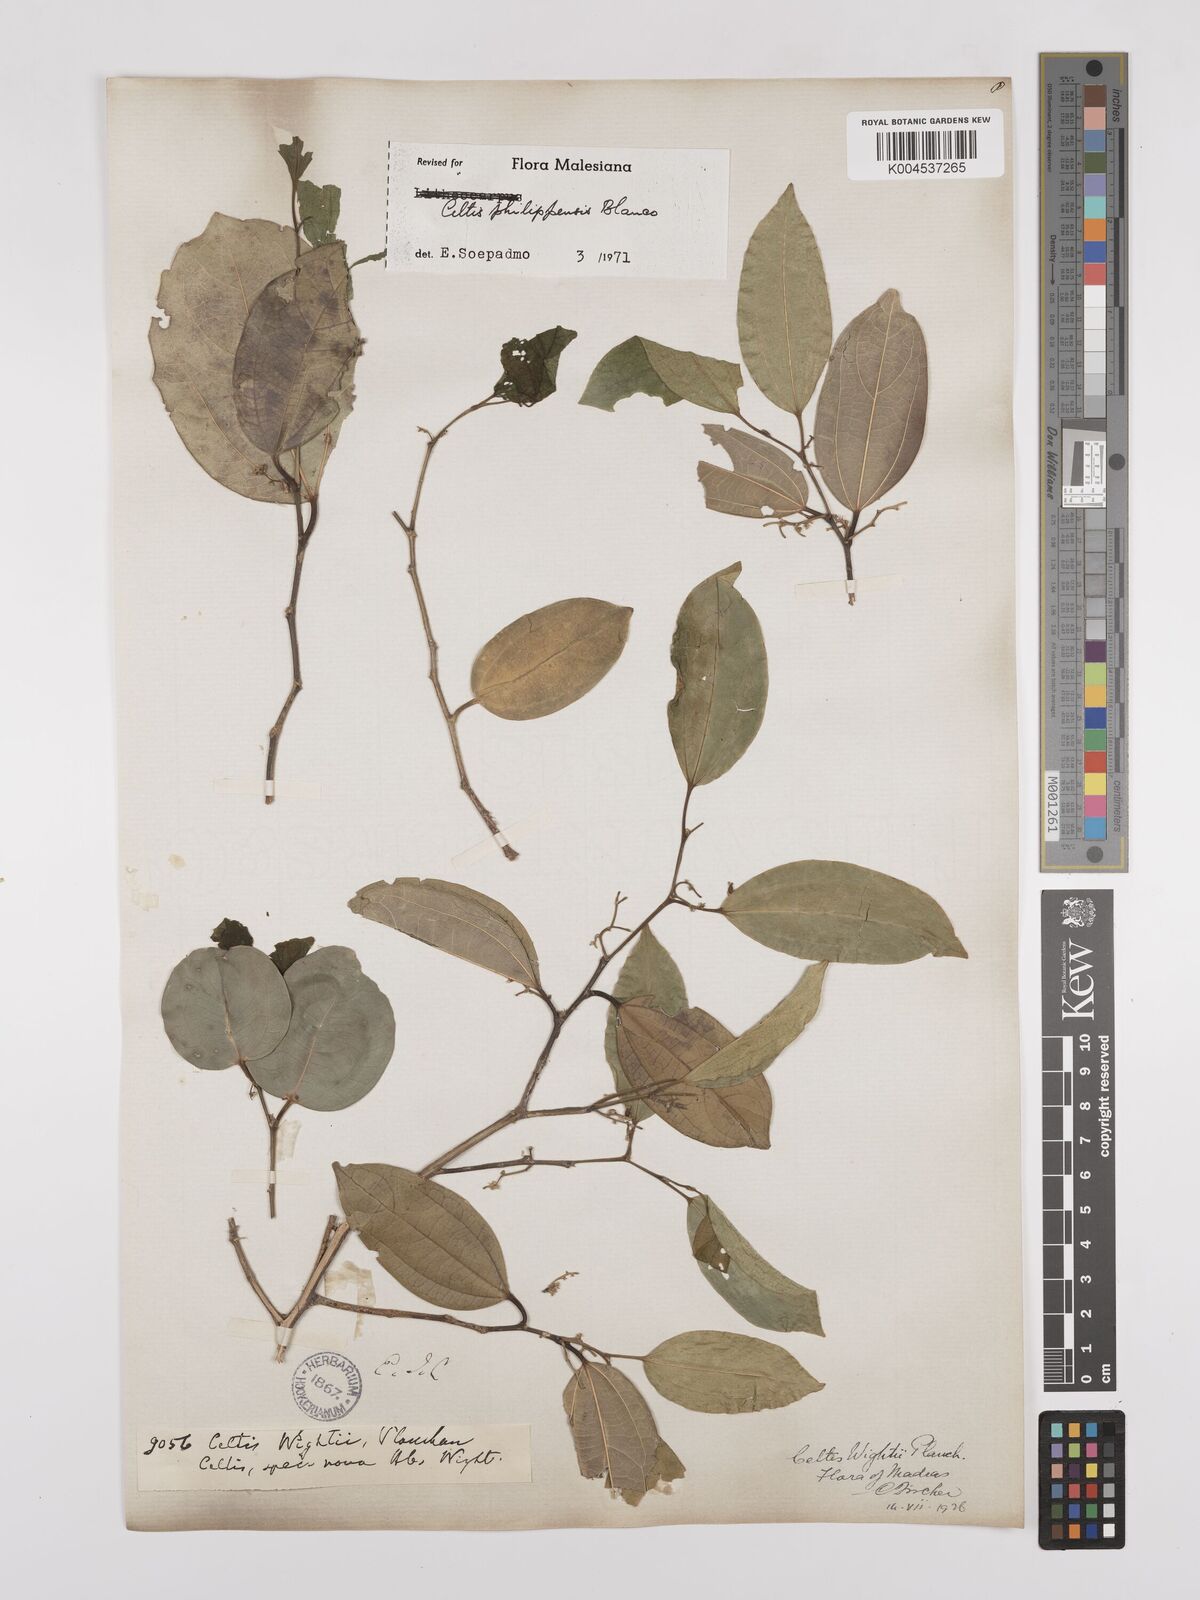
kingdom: Plantae
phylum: Tracheophyta
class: Magnoliopsida
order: Rosales
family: Cannabaceae
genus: Celtis
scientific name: Celtis philippensis
